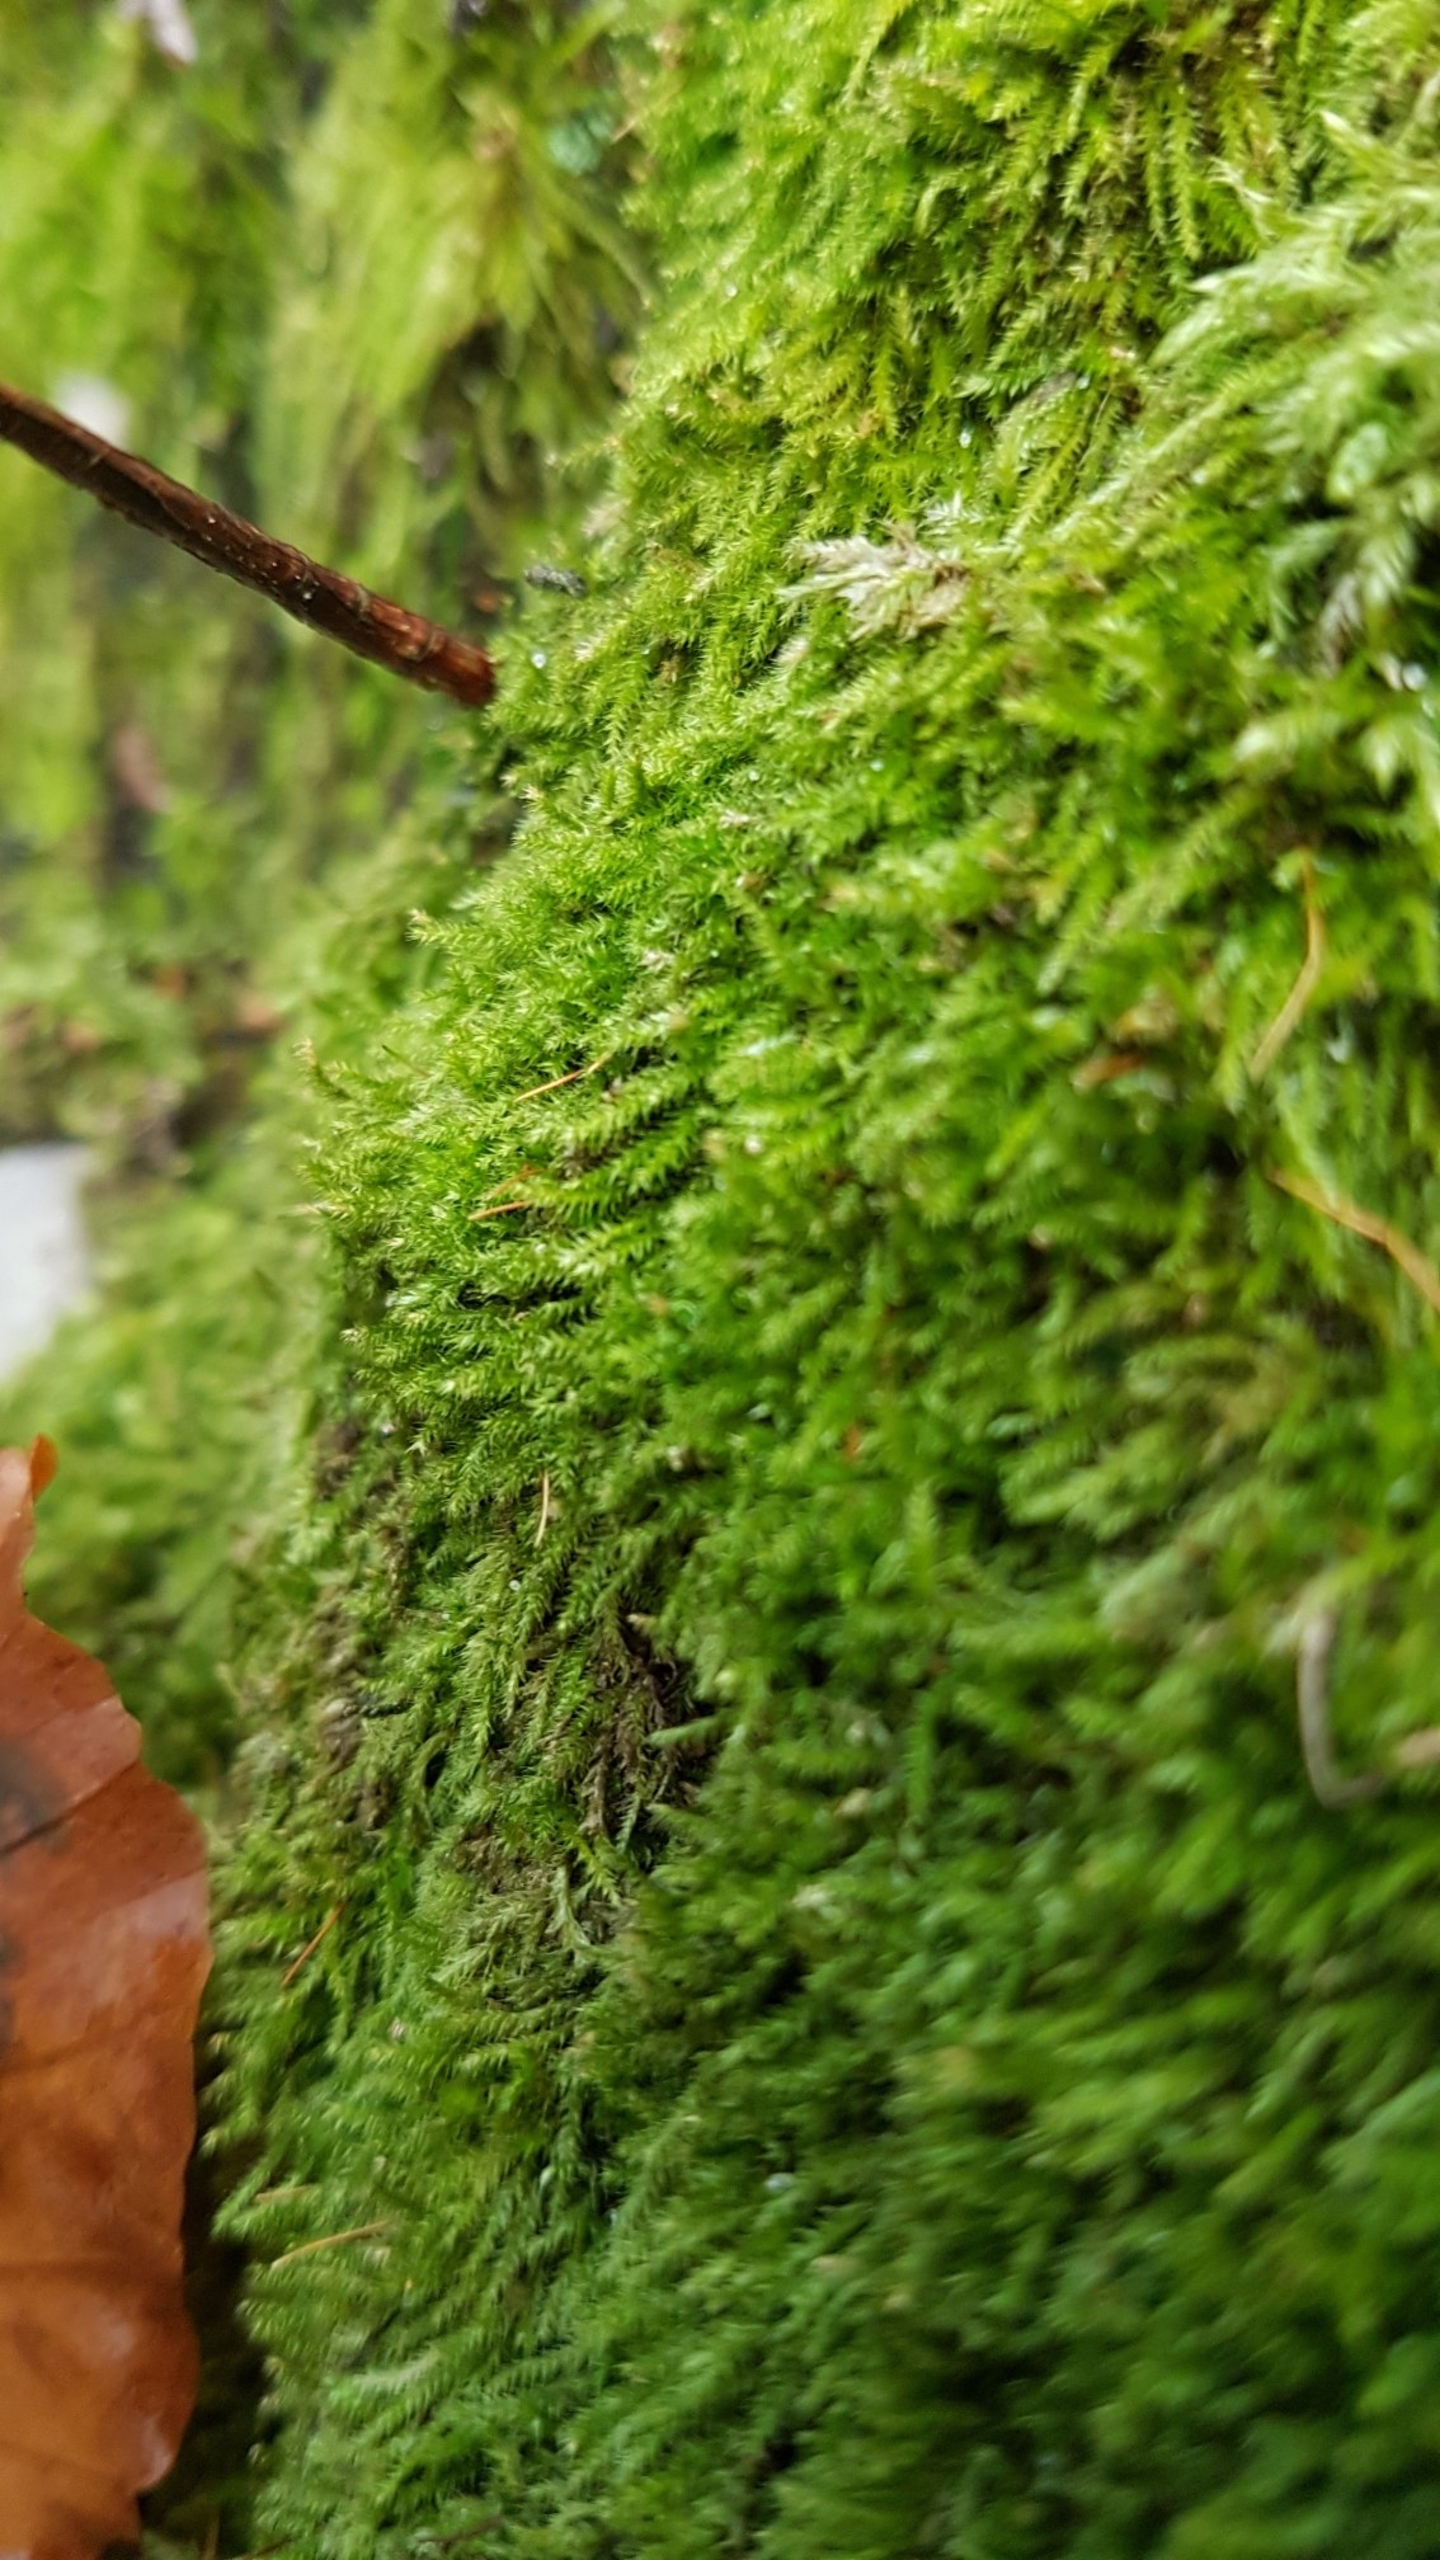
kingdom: Plantae
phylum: Bryophyta
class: Bryopsida
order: Hypnales
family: Plagiotheciaceae
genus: Herzogiella
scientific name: Herzogiella striatella
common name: Tæt pølsekapsel
